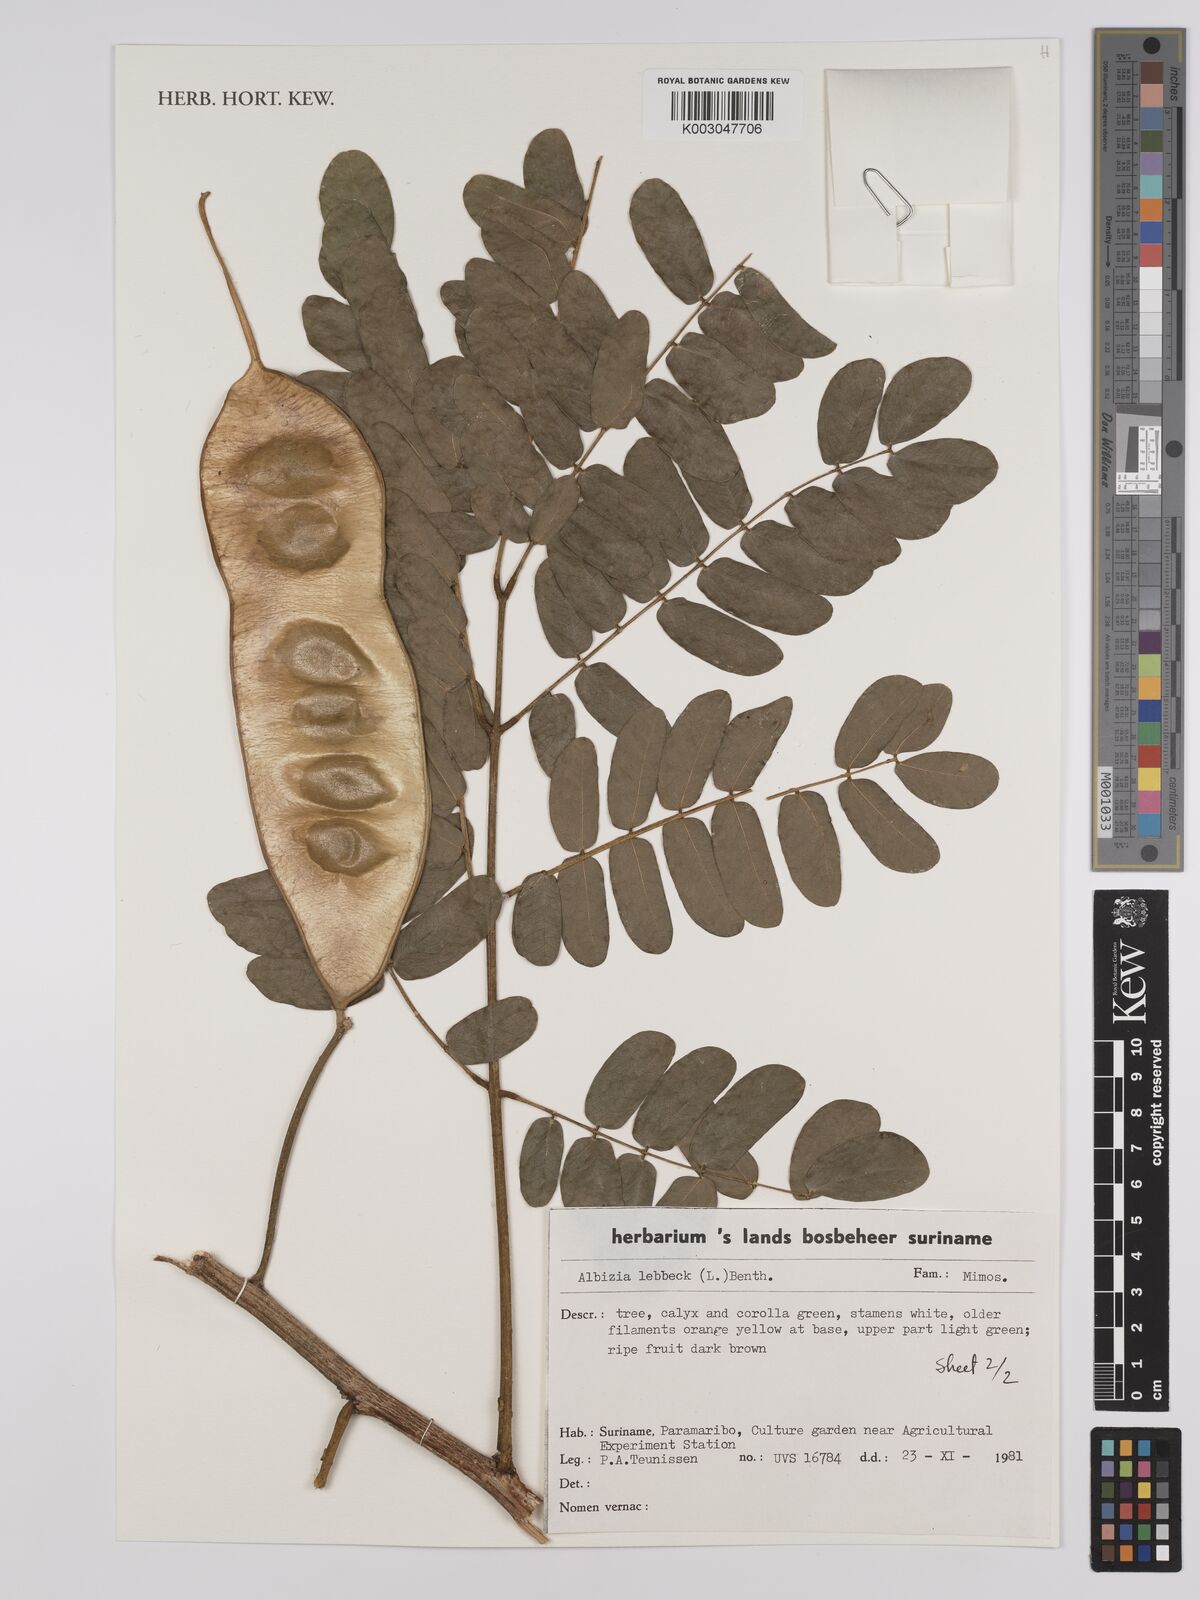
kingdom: Plantae
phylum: Tracheophyta
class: Magnoliopsida
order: Fabales
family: Fabaceae
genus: Albizia
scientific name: Albizia lebbeck
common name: Woman's tongue
